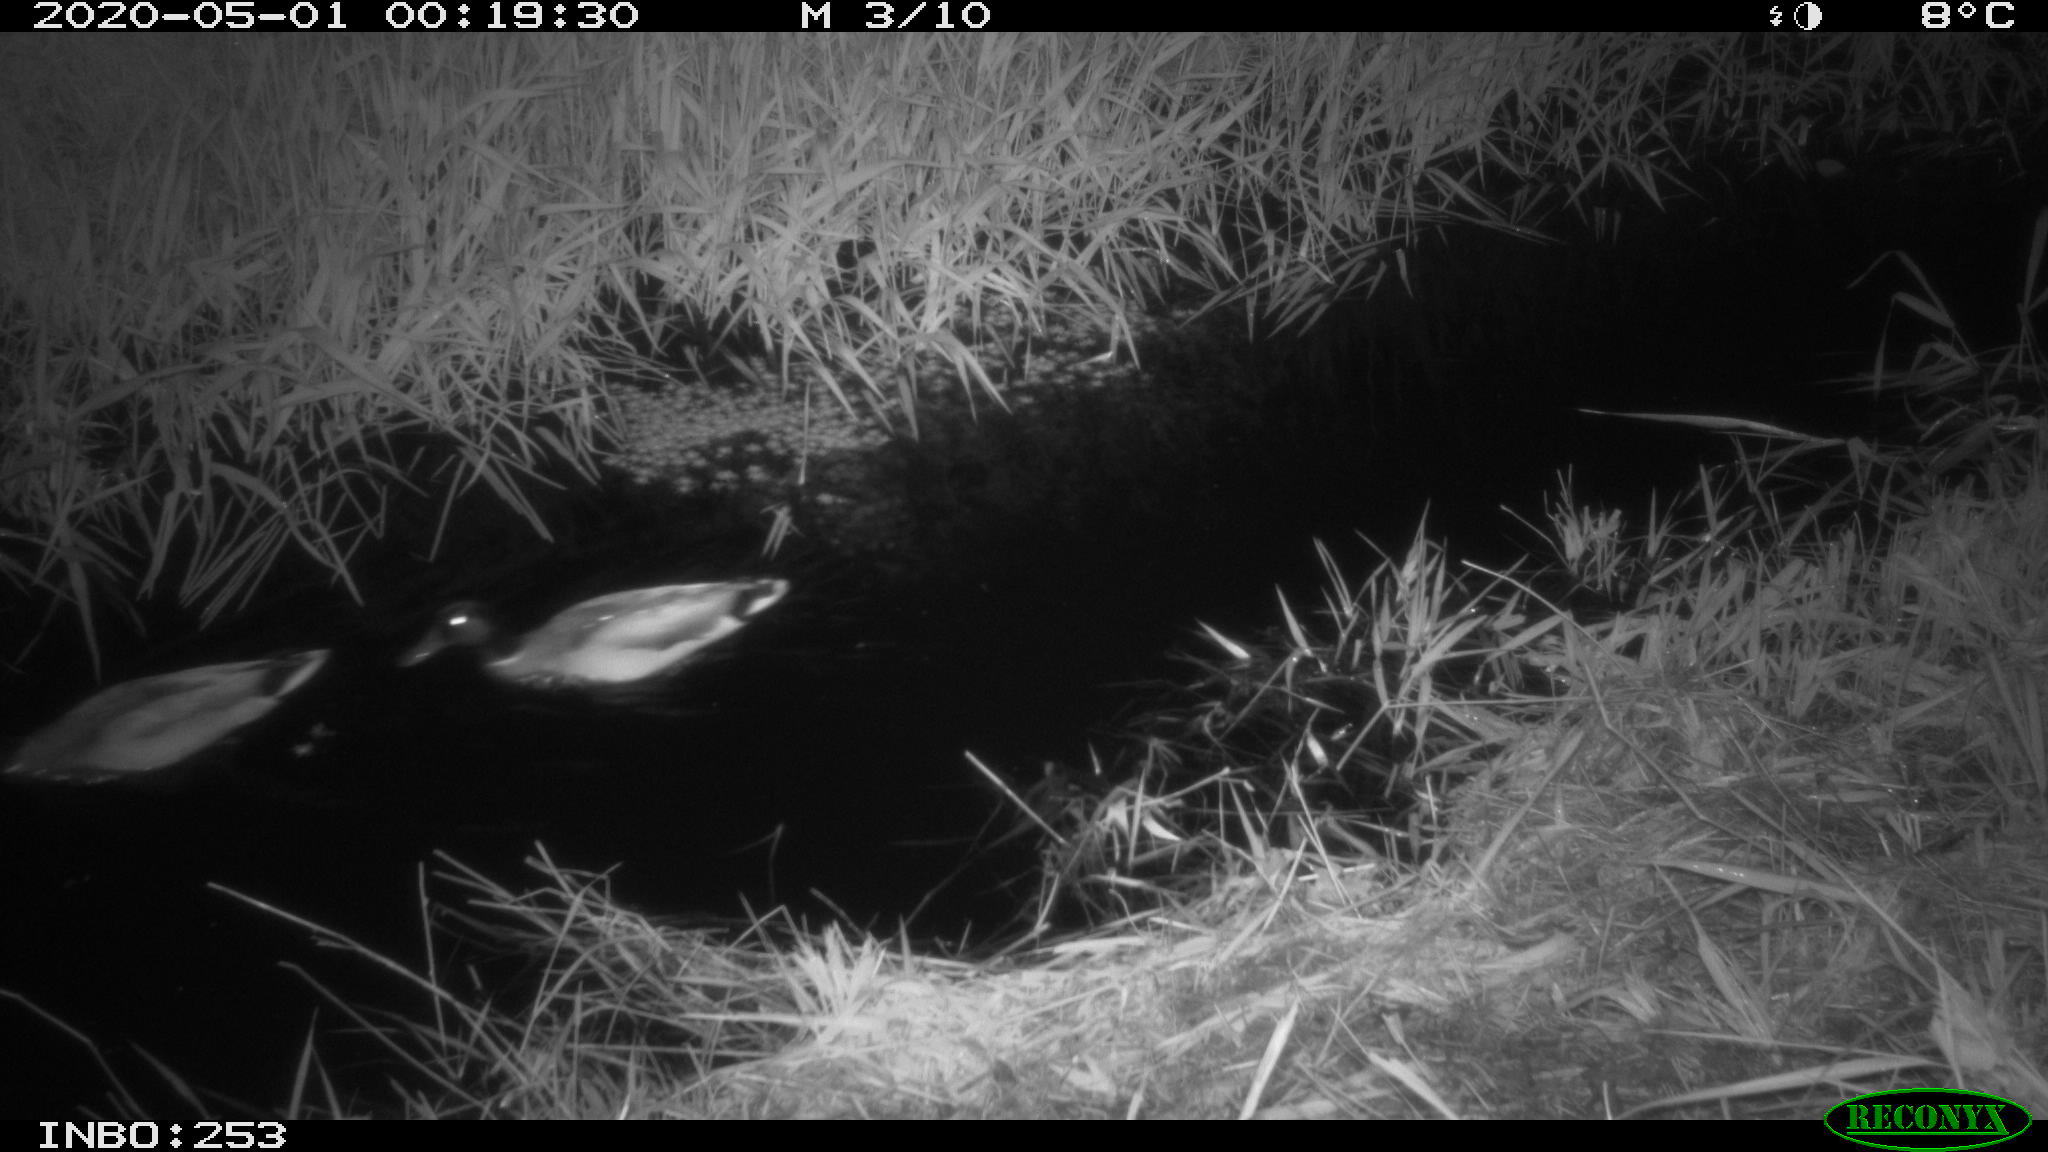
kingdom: Animalia
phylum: Chordata
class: Aves
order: Anseriformes
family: Anatidae
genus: Anas
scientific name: Anas platyrhynchos
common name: Mallard
